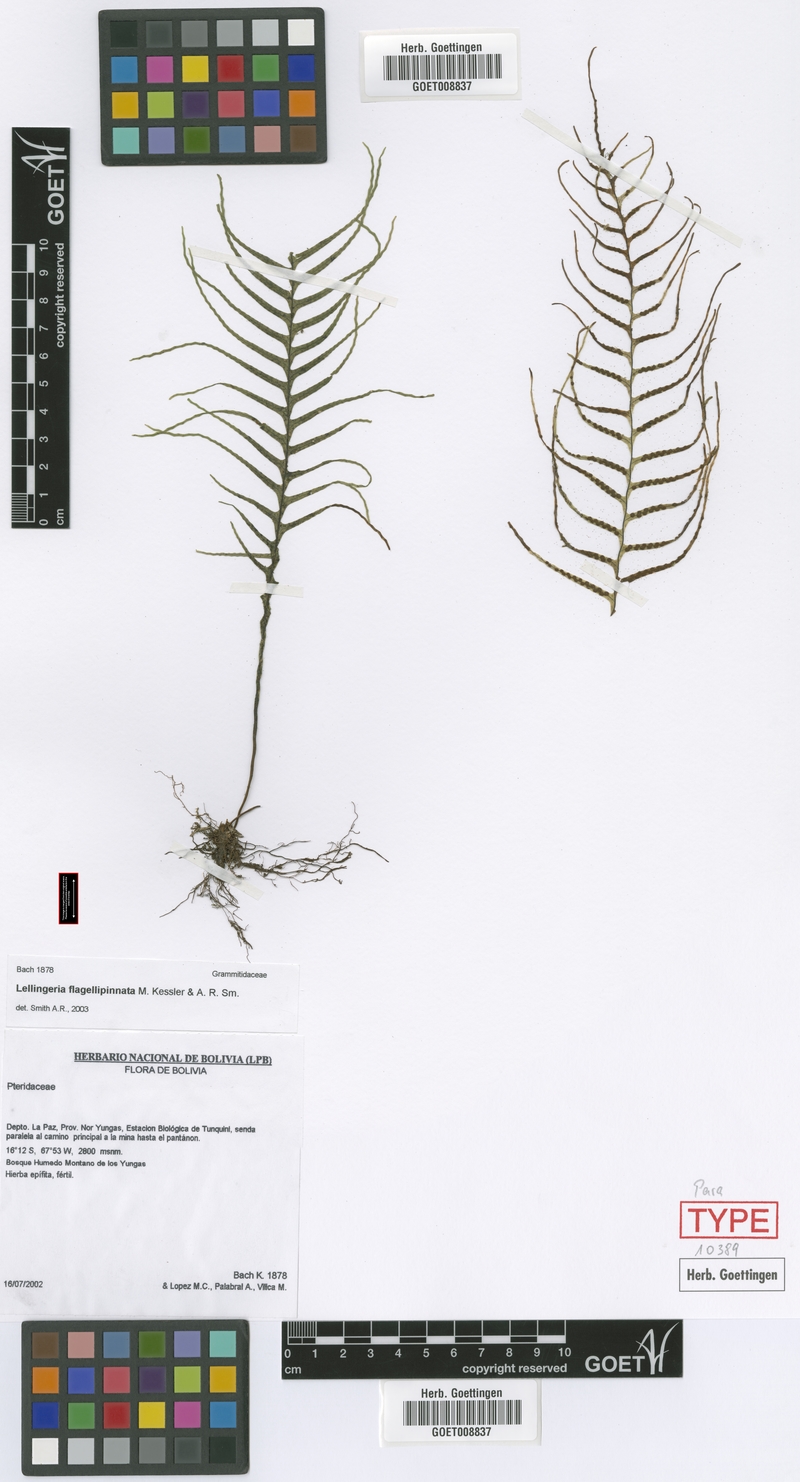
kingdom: Plantae
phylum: Tracheophyta
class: Polypodiopsida
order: Polypodiales
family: Polypodiaceae
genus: Lellingeria
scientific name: Lellingeria flagellipinnata
